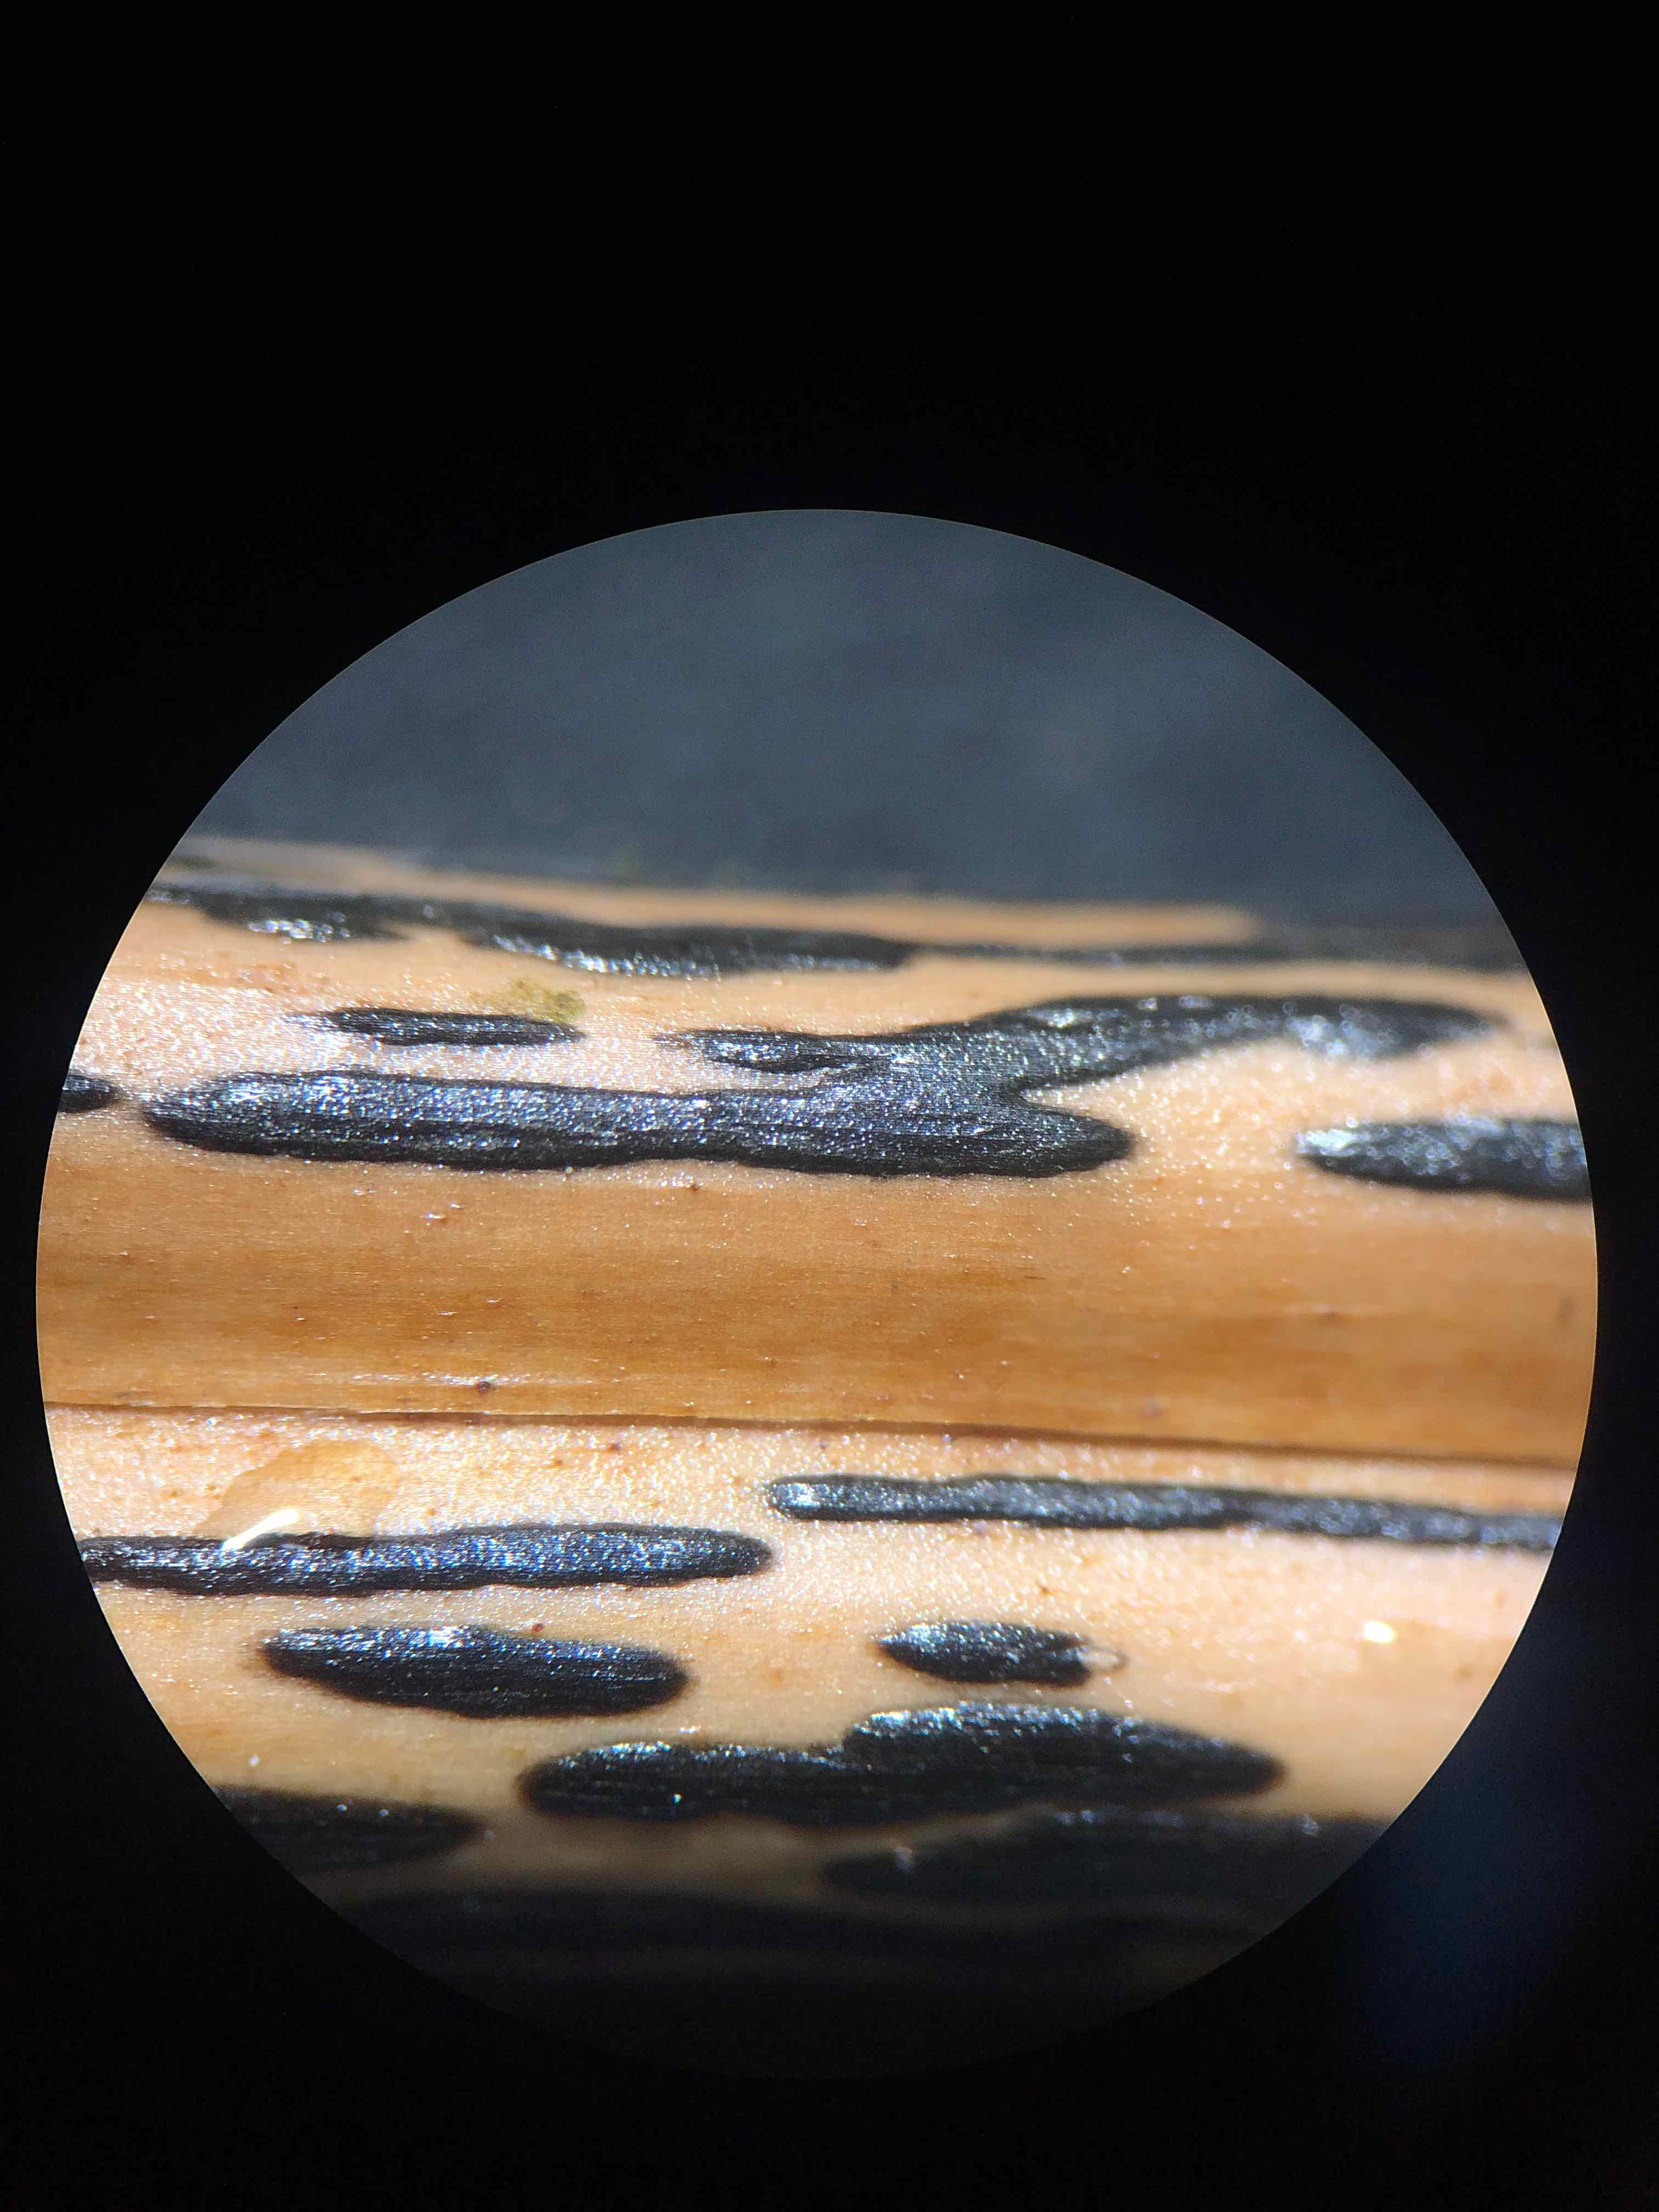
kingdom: Fungi
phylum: Ascomycota
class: Dothideomycetes
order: Pleosporales
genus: Rhopographus
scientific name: Rhopographus filicinus
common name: Bracken map
